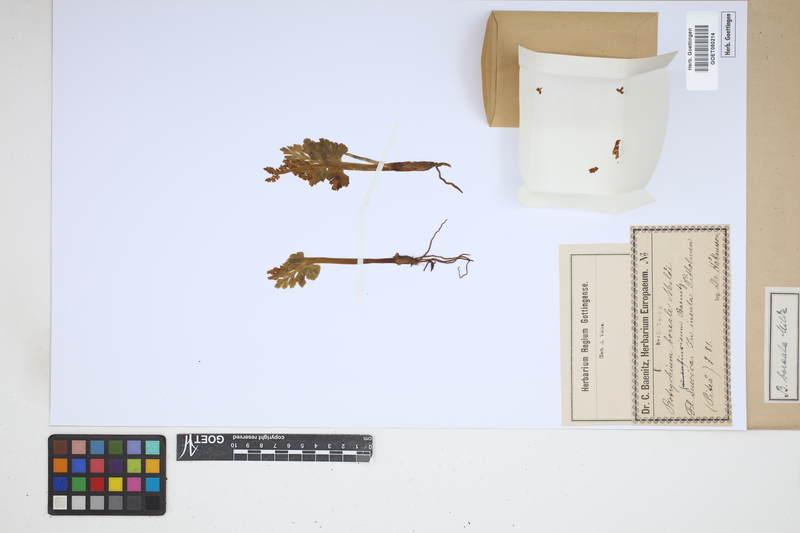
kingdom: Plantae
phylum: Tracheophyta
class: Polypodiopsida
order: Ophioglossales
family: Ophioglossaceae
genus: Botrychium
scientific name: Botrychium boreale
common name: Boreal moonwort
